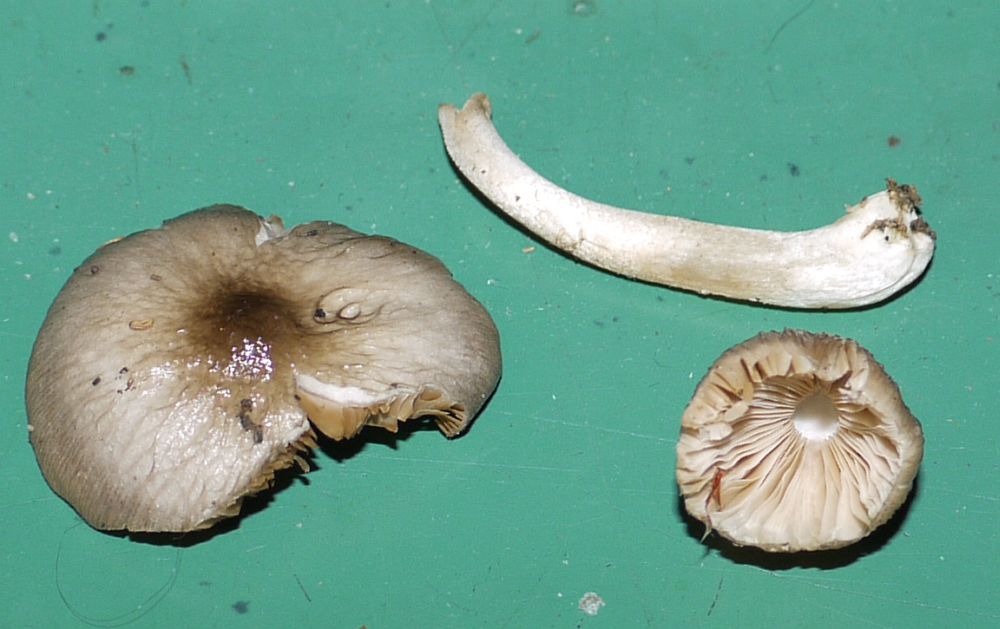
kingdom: Fungi
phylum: Basidiomycota
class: Agaricomycetes
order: Agaricales
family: Bolbitiaceae
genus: Bolbitius
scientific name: Bolbitius reticulatus
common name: netåret gulhat
